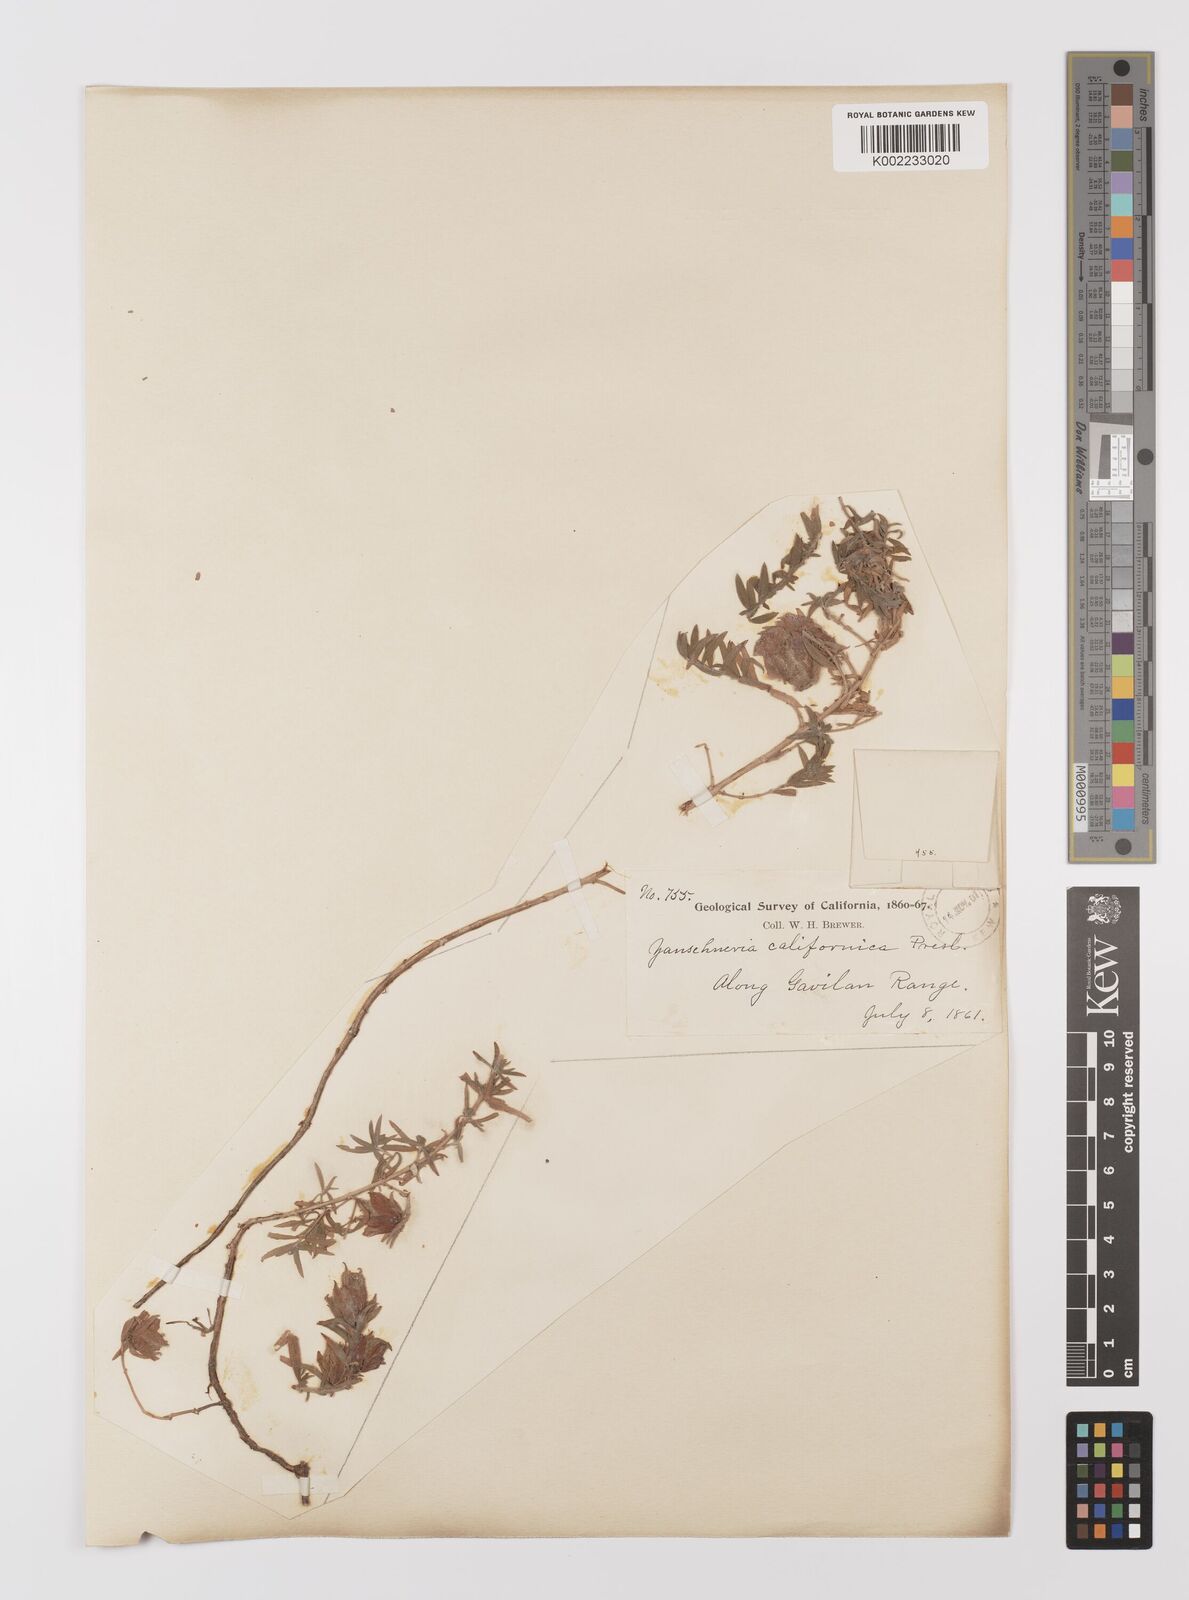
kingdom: Plantae
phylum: Tracheophyta
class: Magnoliopsida
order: Myrtales
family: Onagraceae
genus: Epilobium
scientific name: Epilobium canum
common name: California-fuchsia
